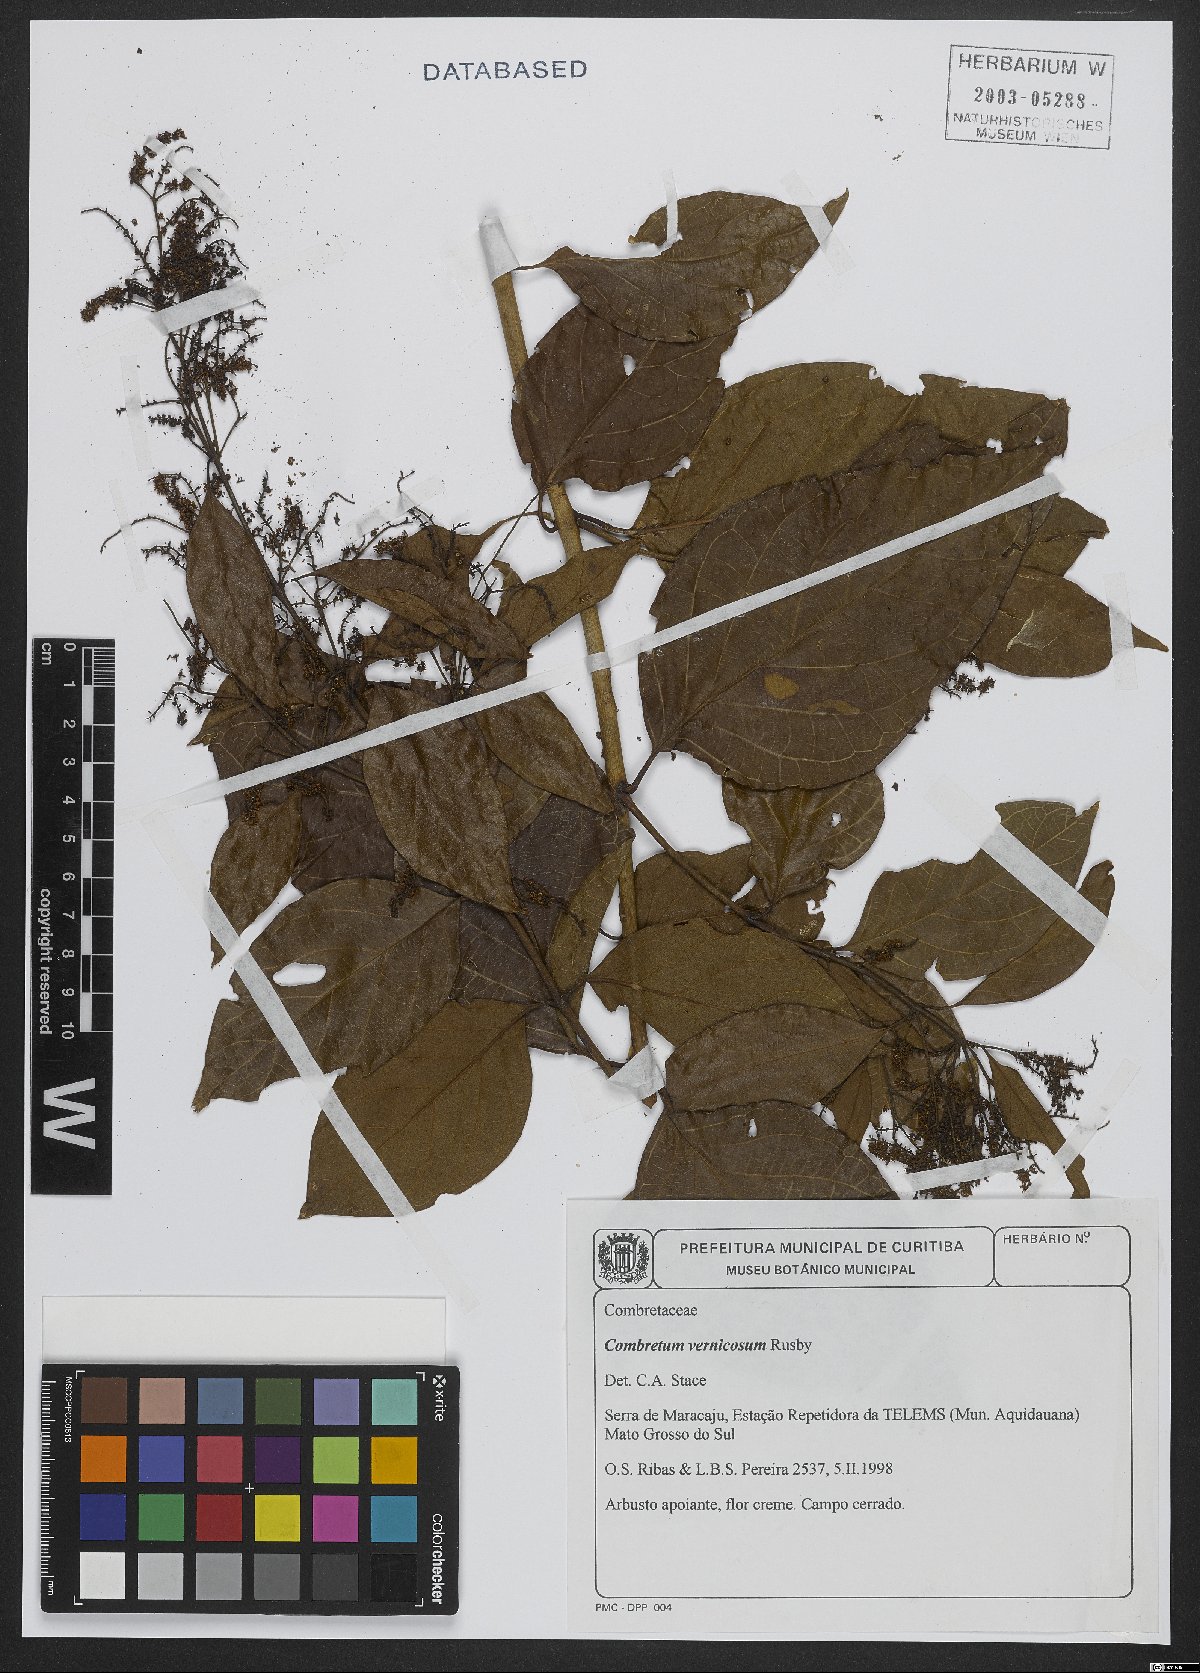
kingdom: Plantae
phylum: Tracheophyta
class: Magnoliopsida
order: Myrtales
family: Combretaceae
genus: Combretum
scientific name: Combretum vernicosum
